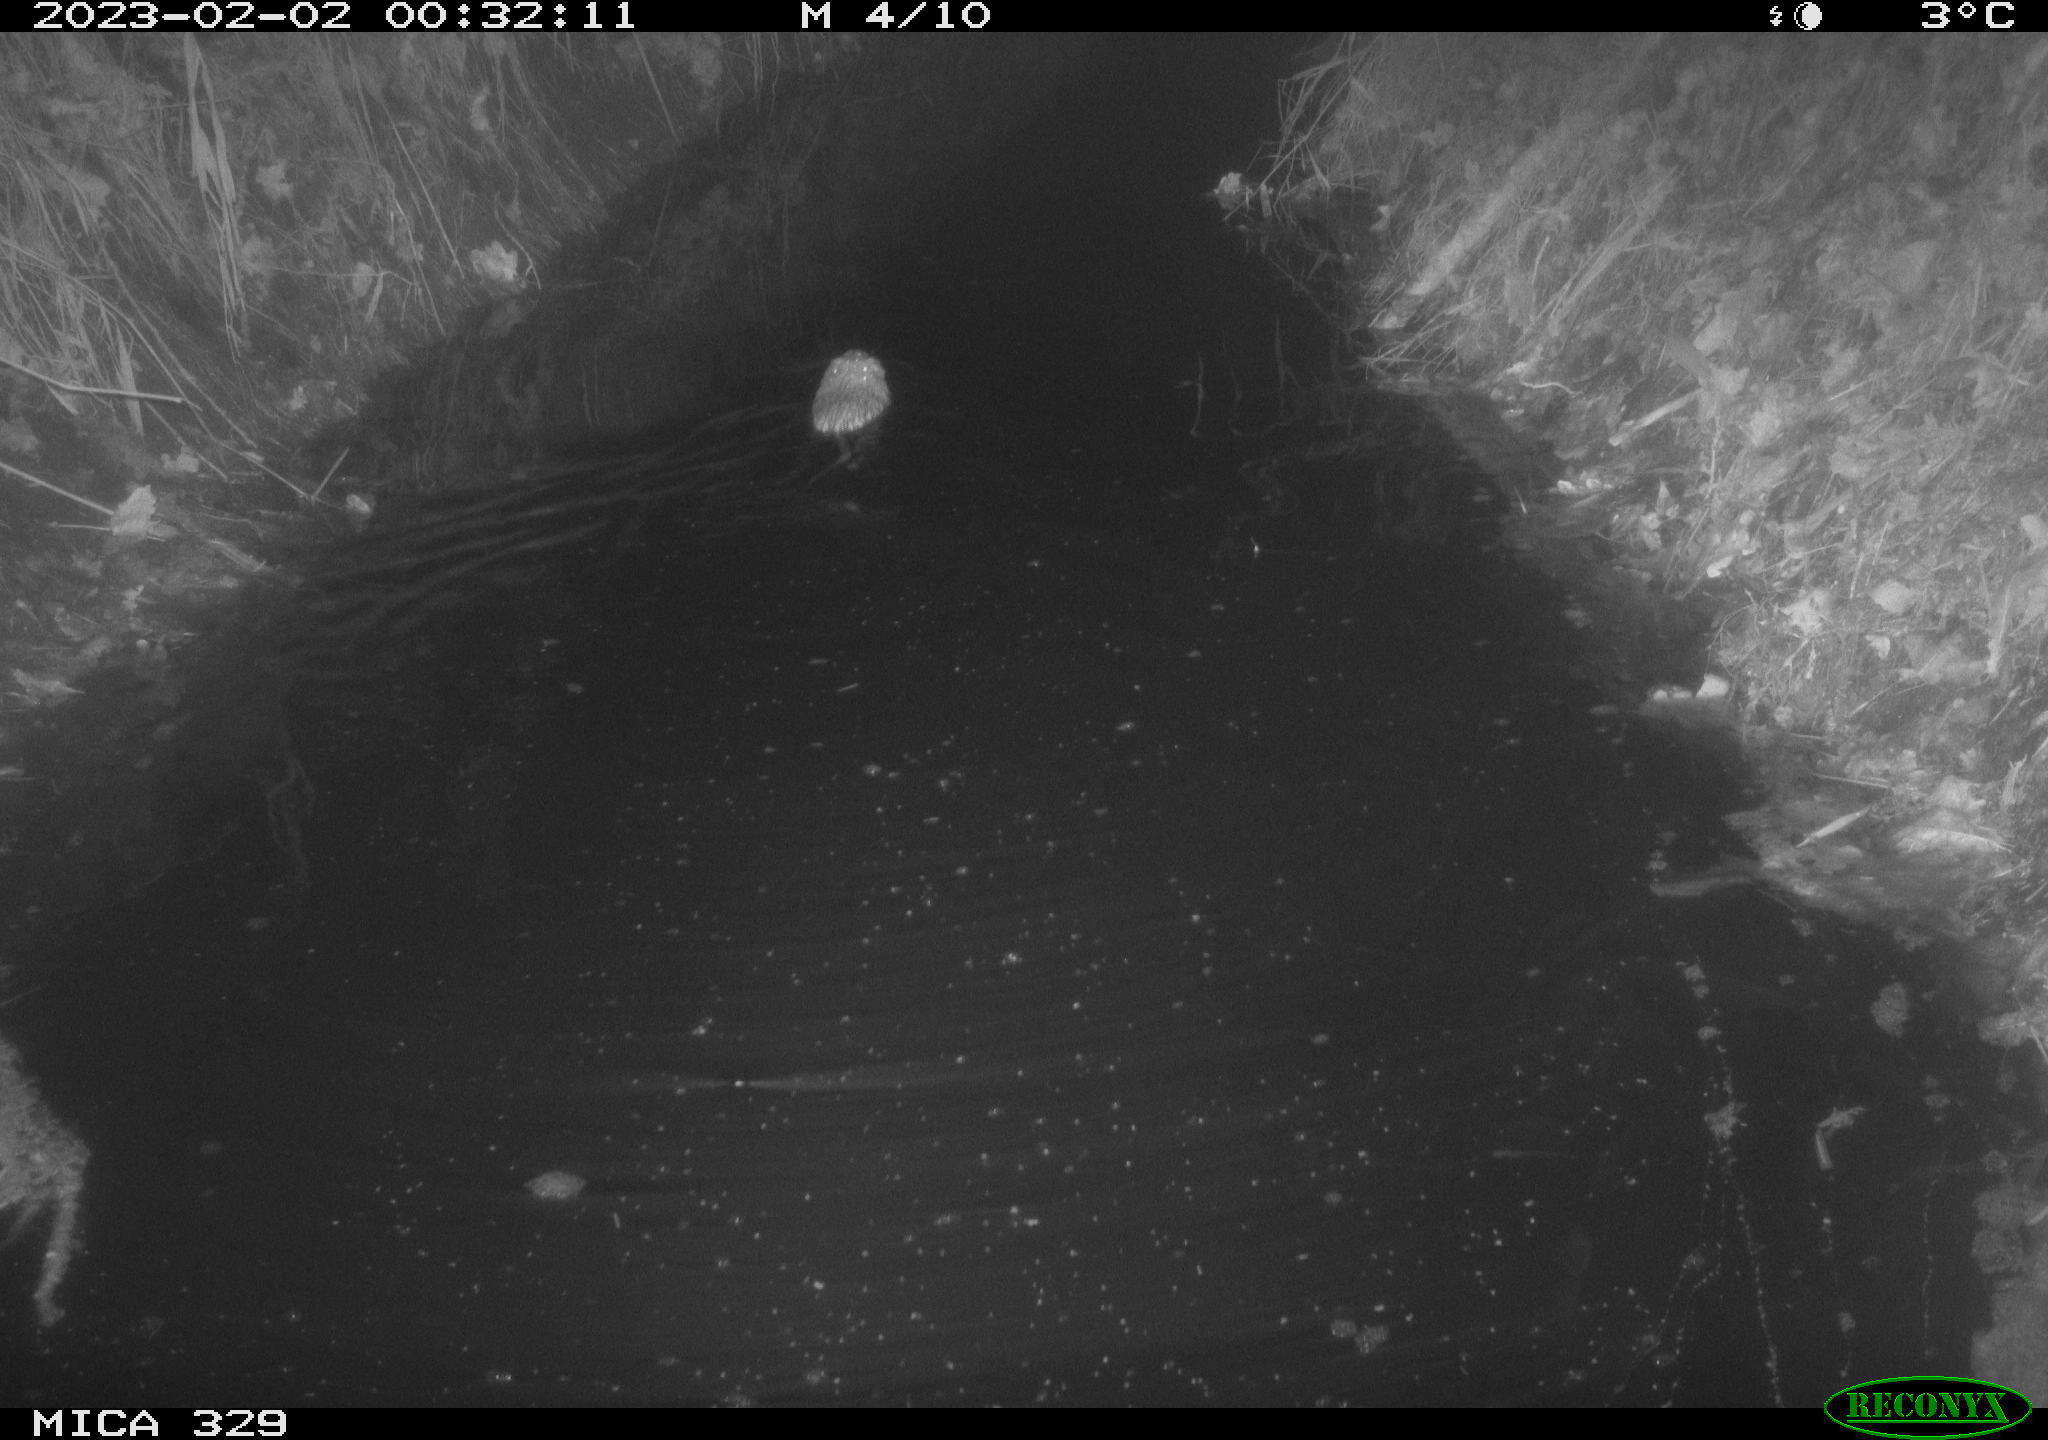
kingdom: Animalia
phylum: Chordata
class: Mammalia
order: Rodentia
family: Cricetidae
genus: Ondatra
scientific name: Ondatra zibethicus
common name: Muskrat
